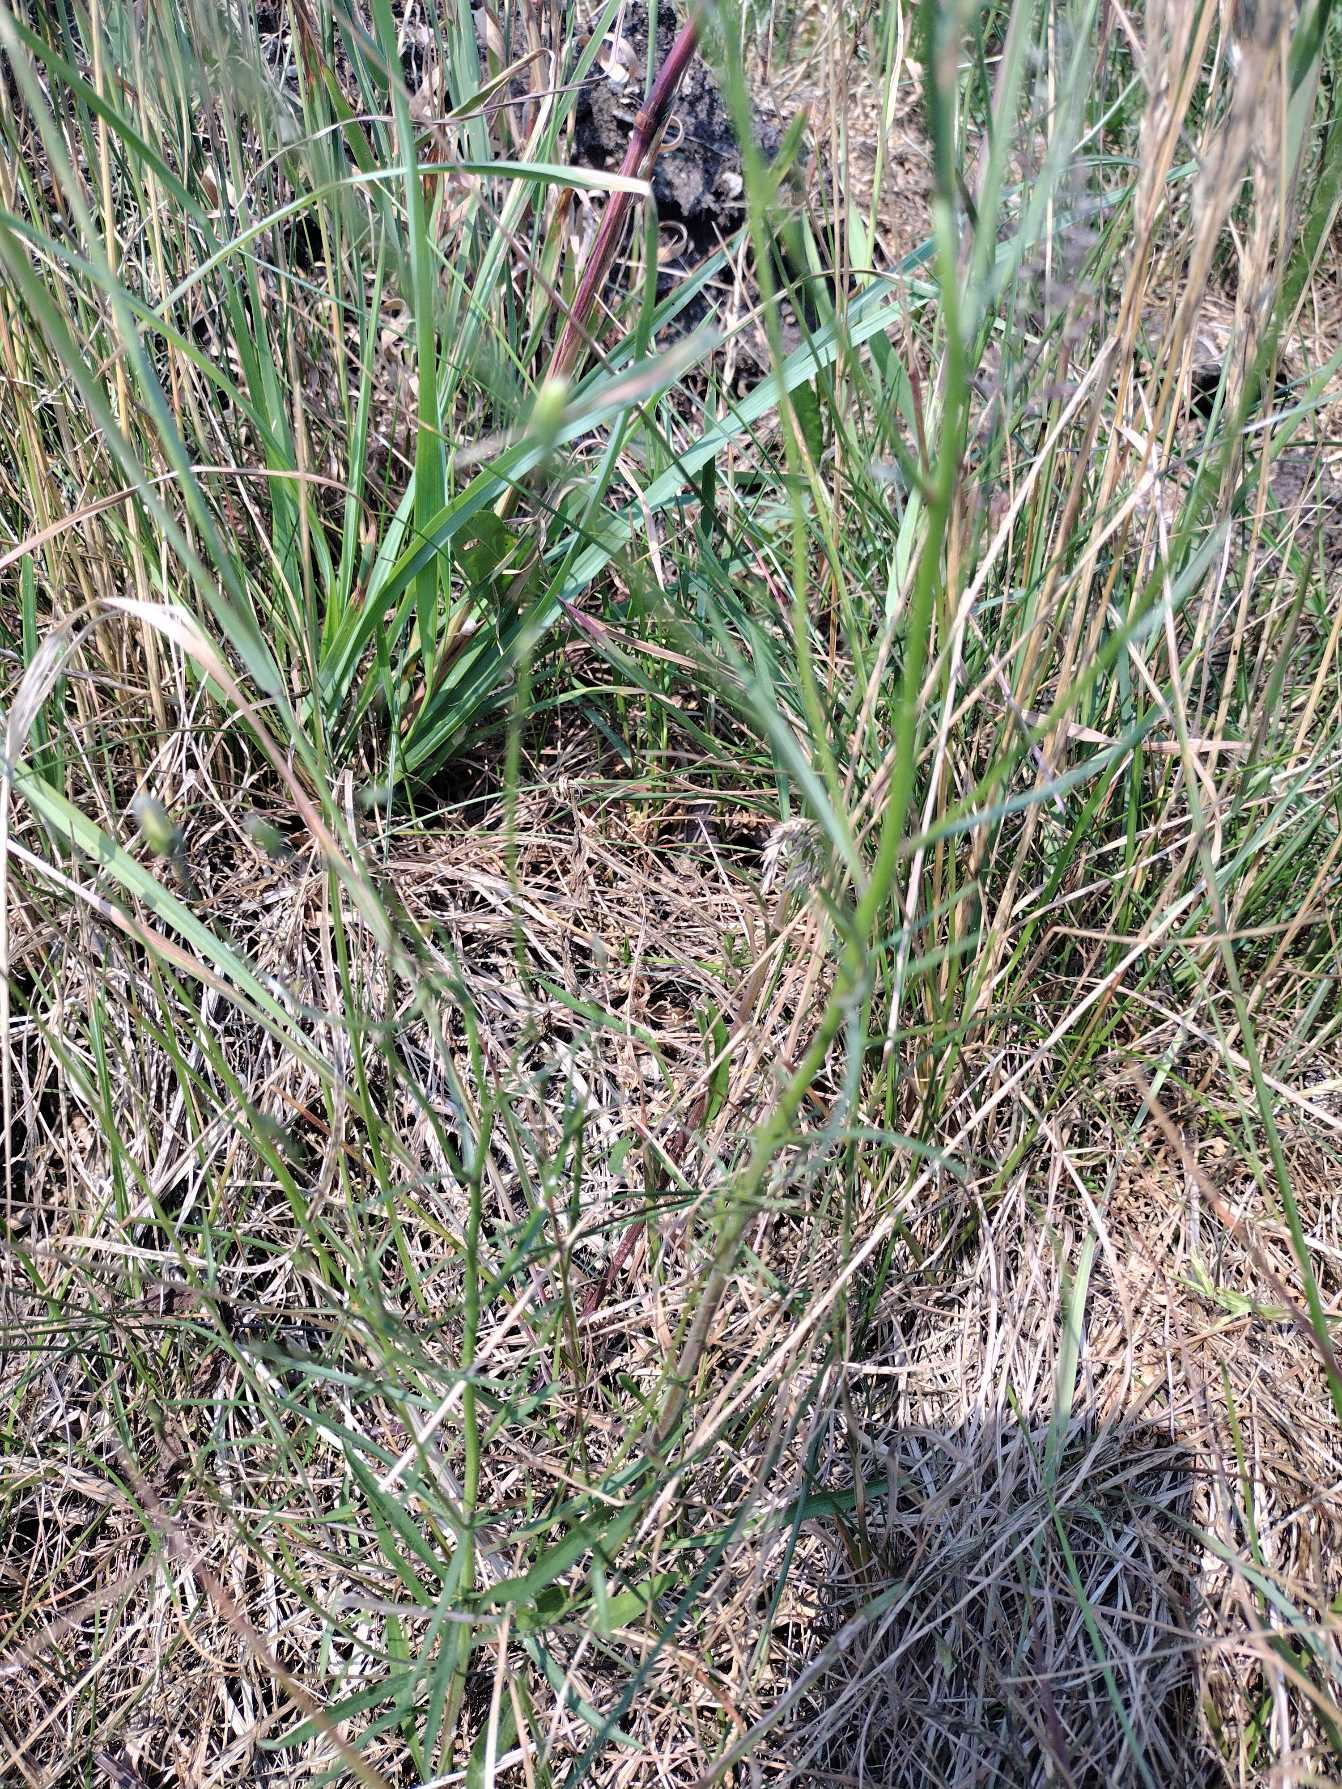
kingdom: Plantae
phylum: Tracheophyta
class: Magnoliopsida
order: Asterales
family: Campanulaceae
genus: Campanula
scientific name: Campanula rotundifolia
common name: Liden klokke
